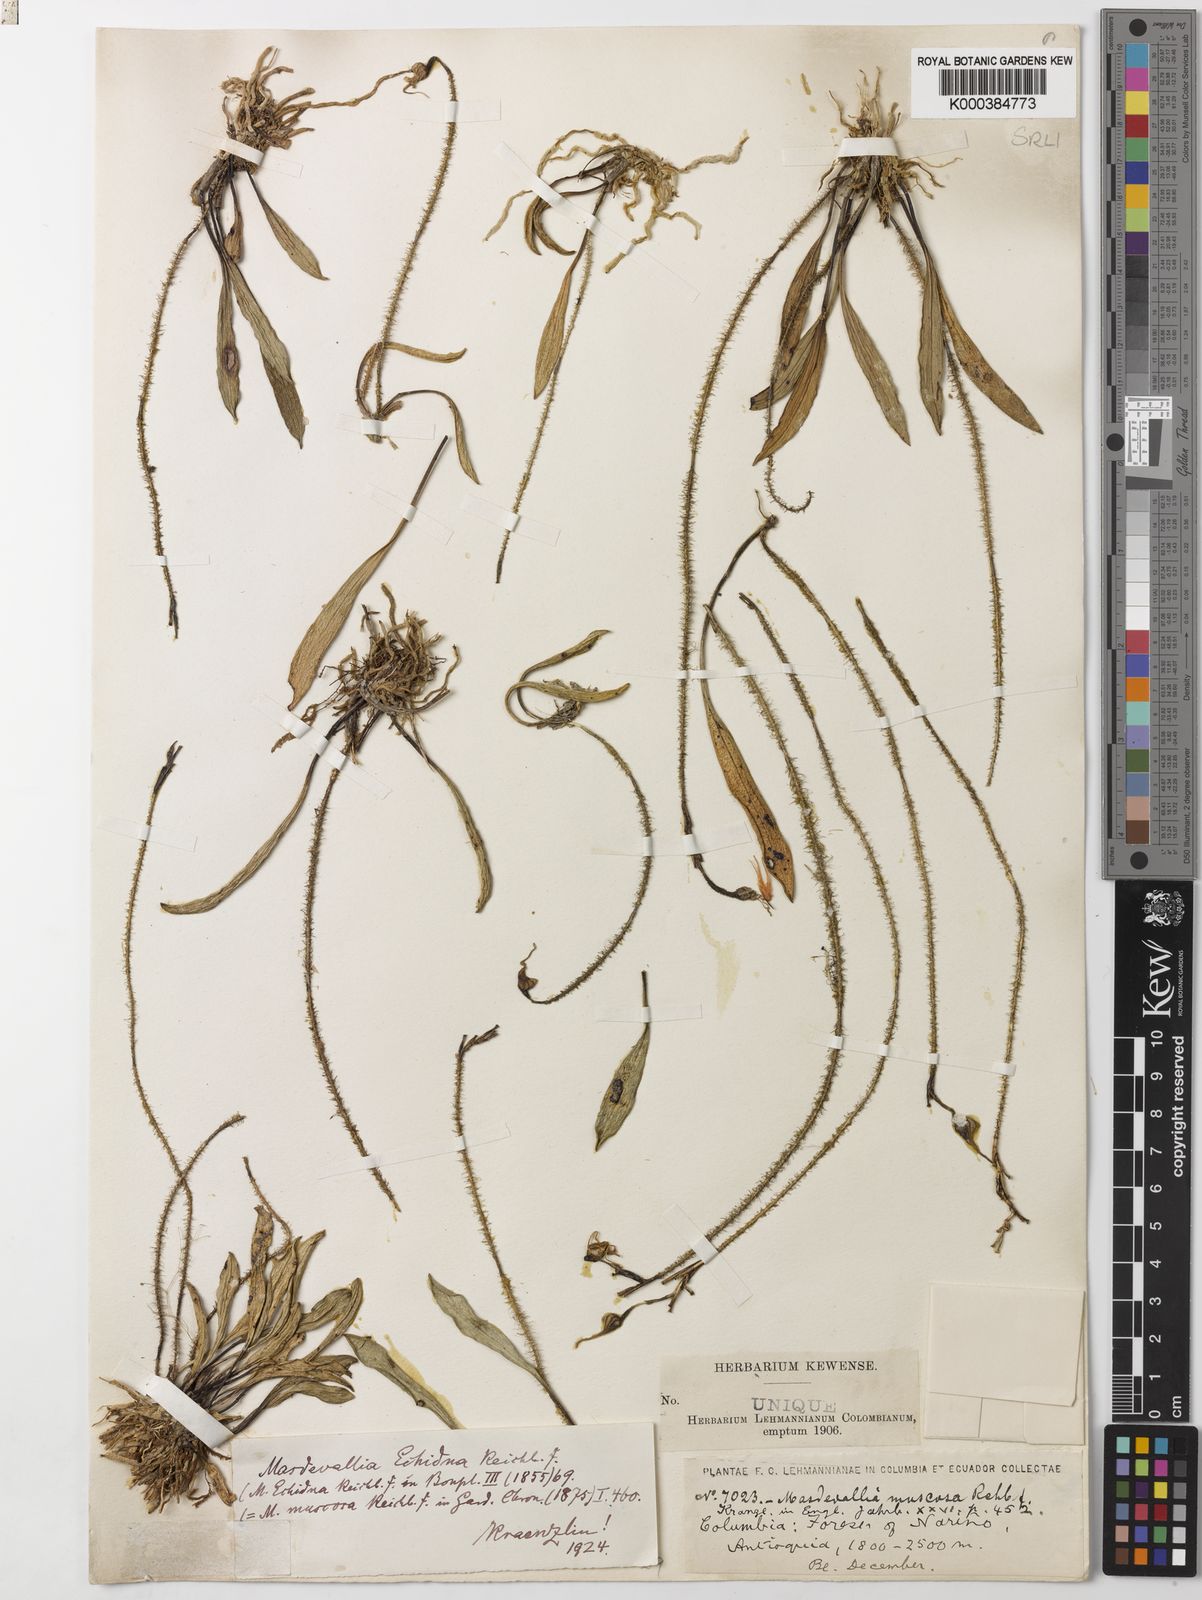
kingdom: Plantae
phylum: Tracheophyta
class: Liliopsida
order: Asparagales
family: Orchidaceae
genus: Porroglossum
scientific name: Porroglossum muscosum
